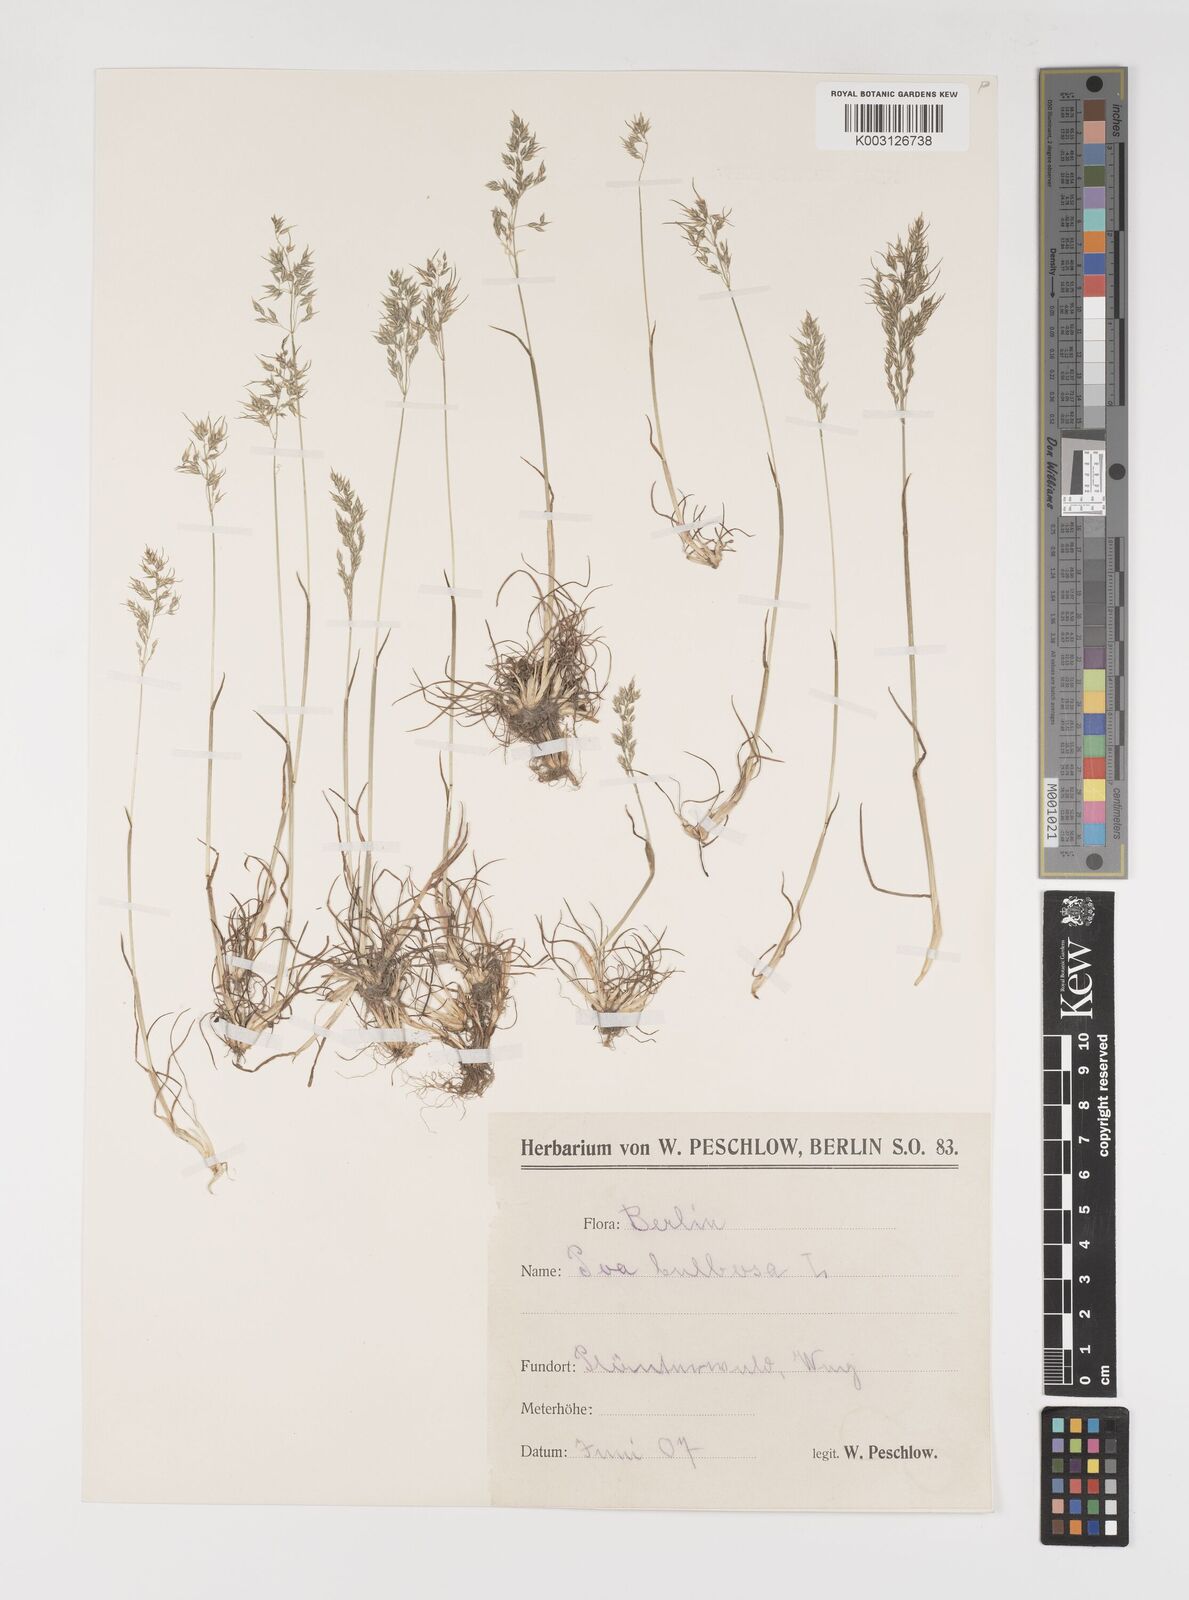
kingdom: Plantae
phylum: Tracheophyta
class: Liliopsida
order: Poales
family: Poaceae
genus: Poa
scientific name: Poa bulbosa
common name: Bulbous bluegrass
